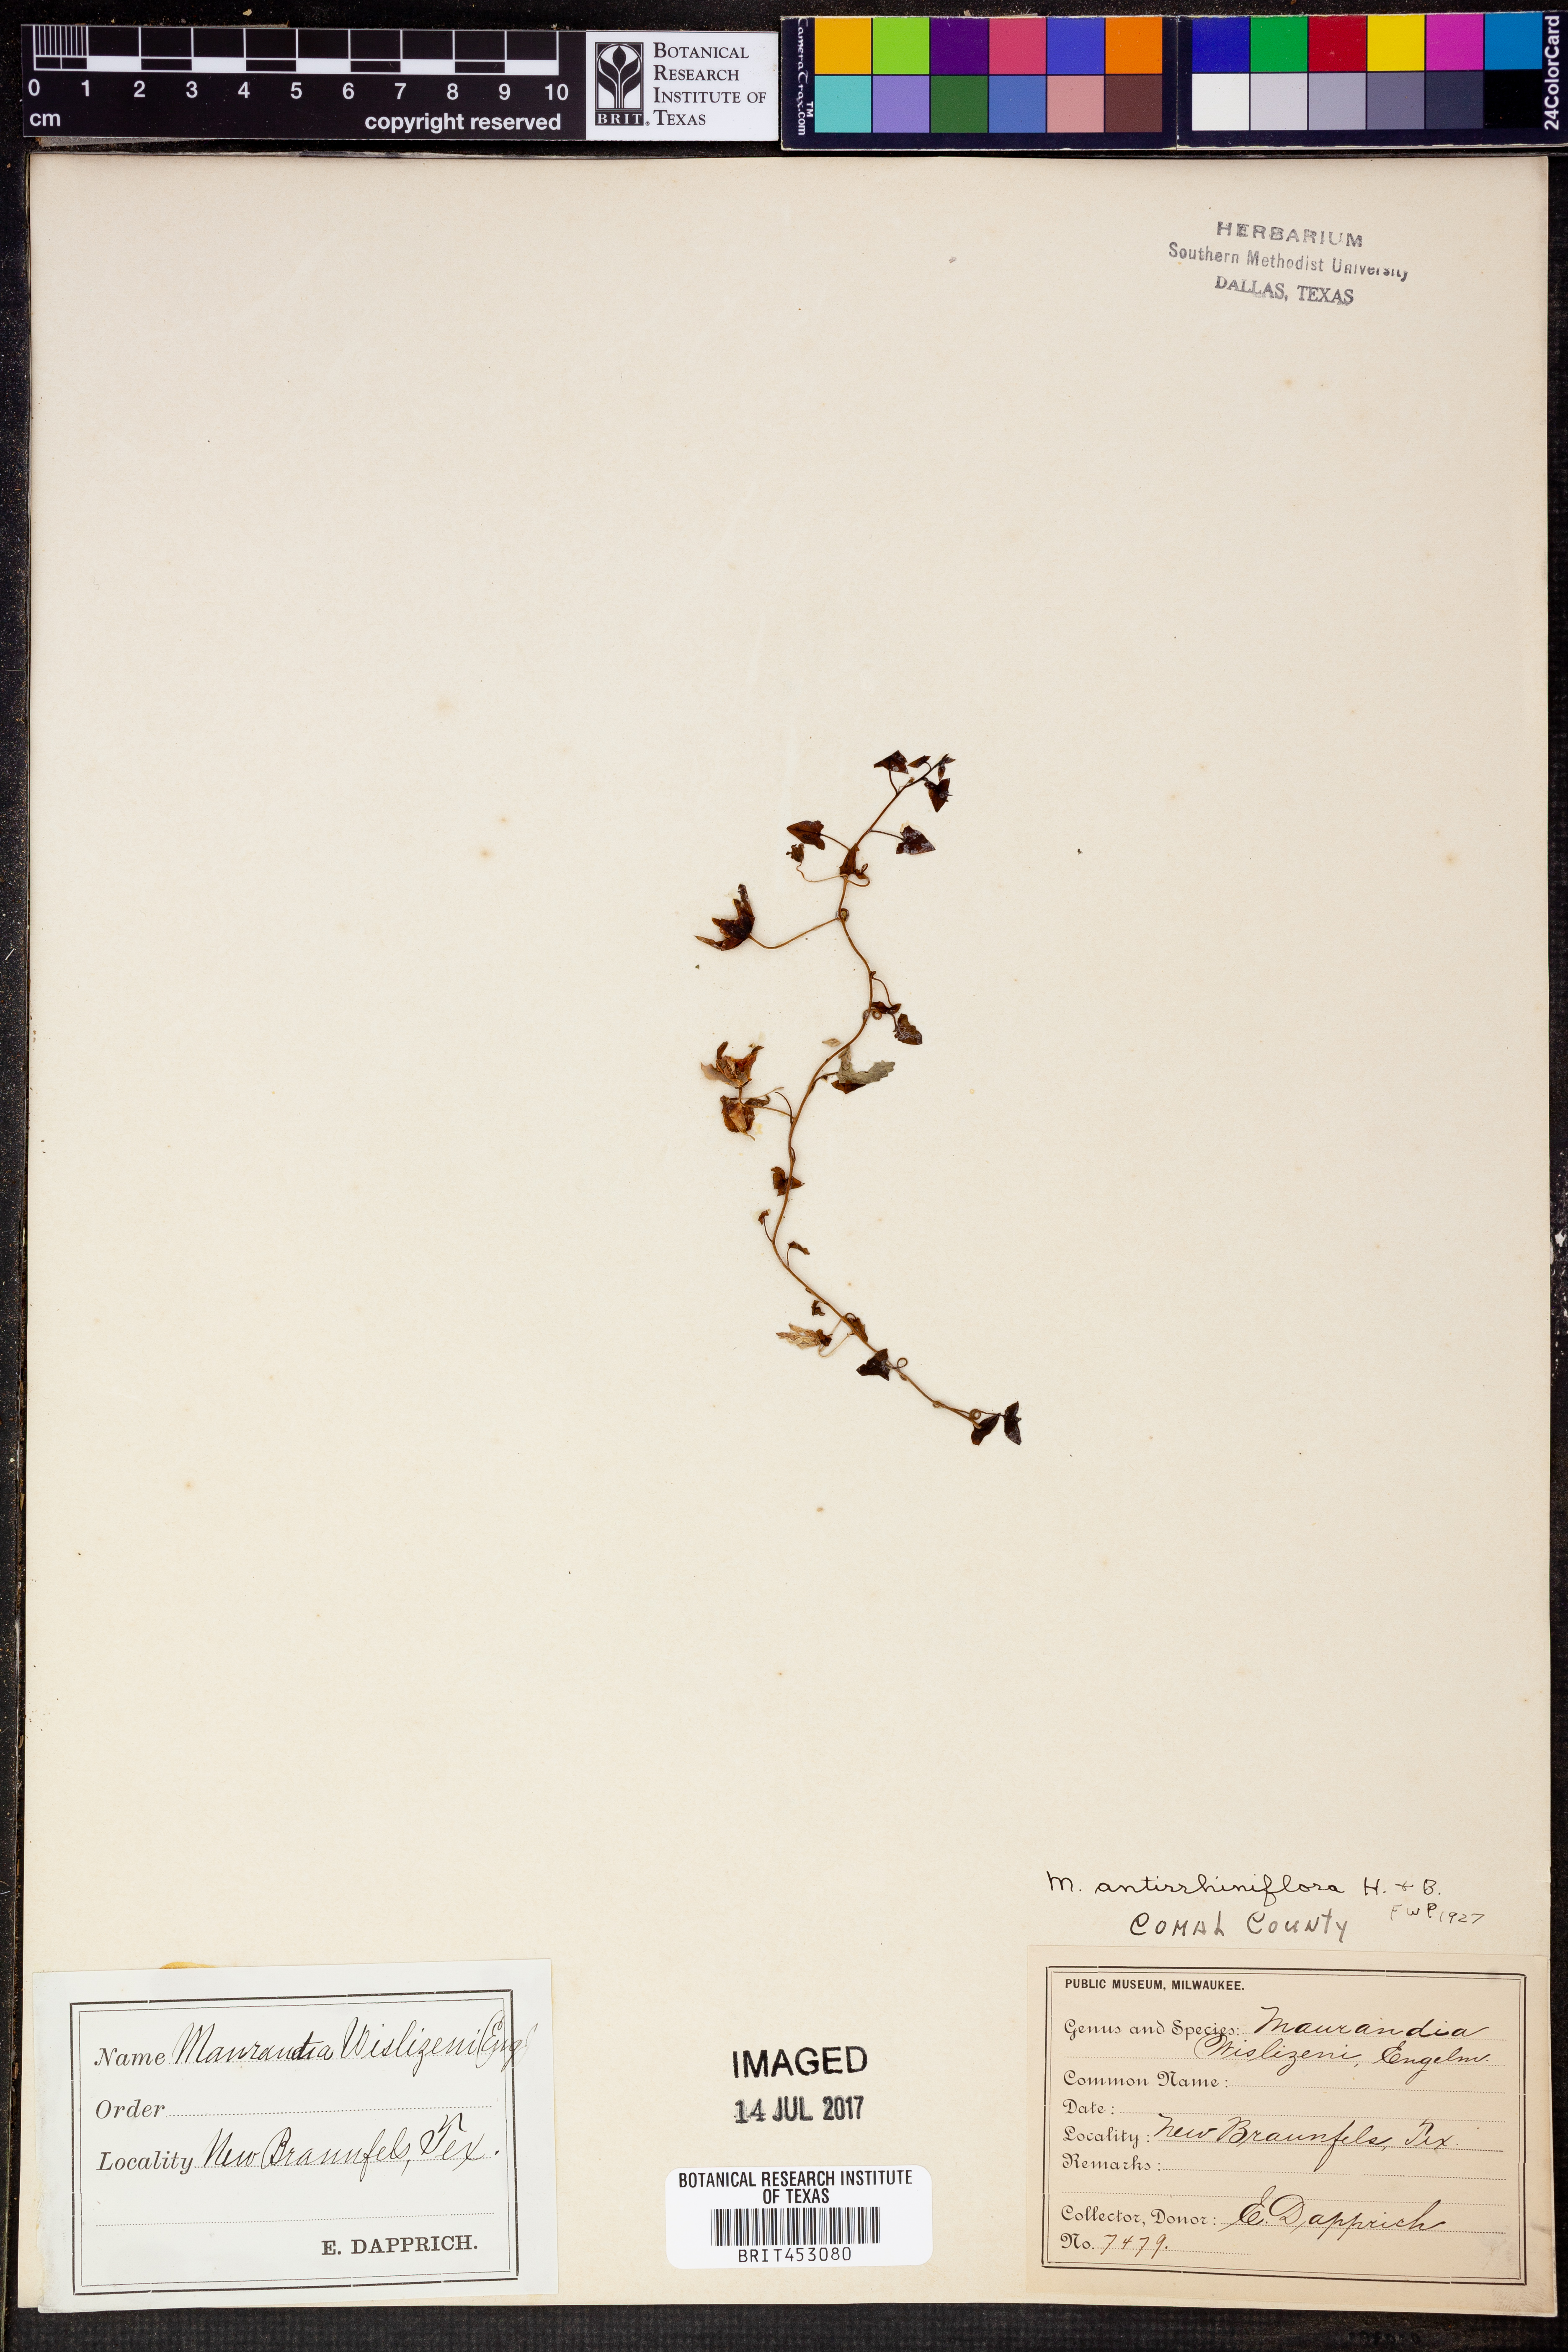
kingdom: Plantae
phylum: Tracheophyta
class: Magnoliopsida
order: Lamiales
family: Plantaginaceae
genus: Maurandella
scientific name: Maurandella antirrhiniflora
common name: Violet twining-snapdragon
